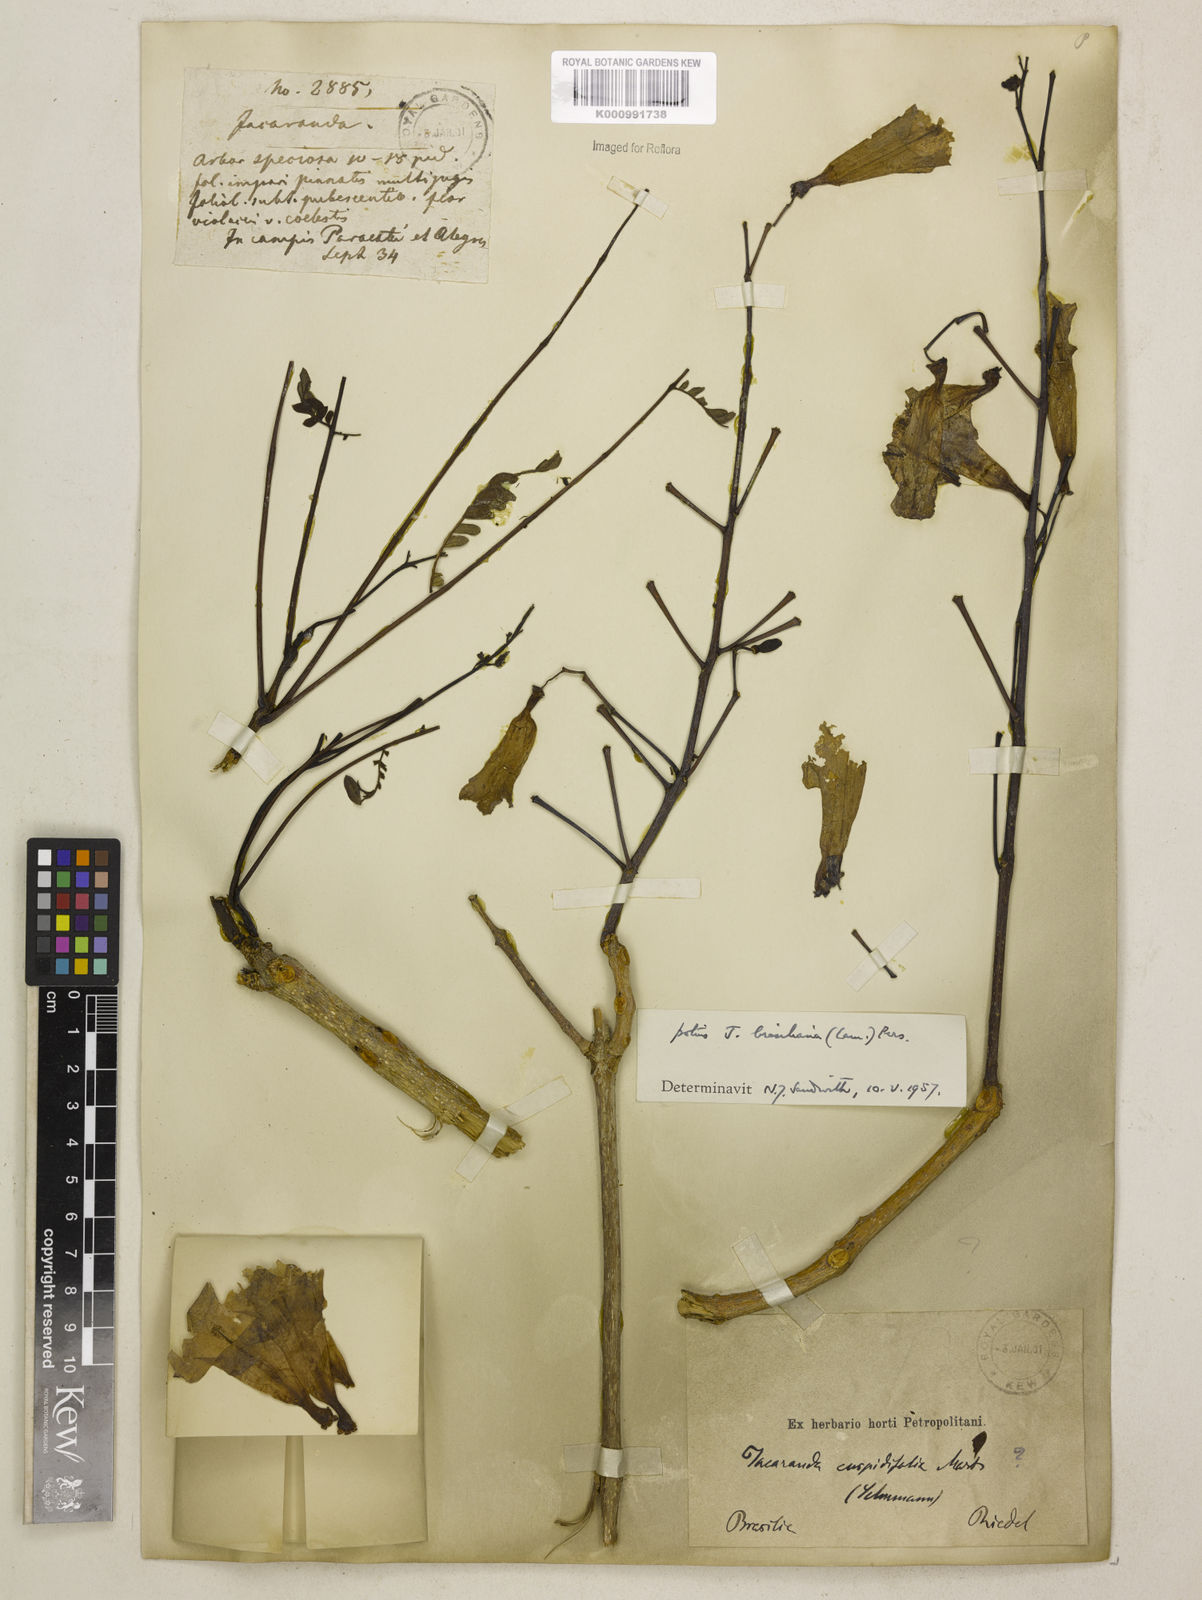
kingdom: Plantae
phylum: Tracheophyta
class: Magnoliopsida
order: Lamiales
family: Bignoniaceae
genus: Jacaranda
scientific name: Jacaranda brasiliana
